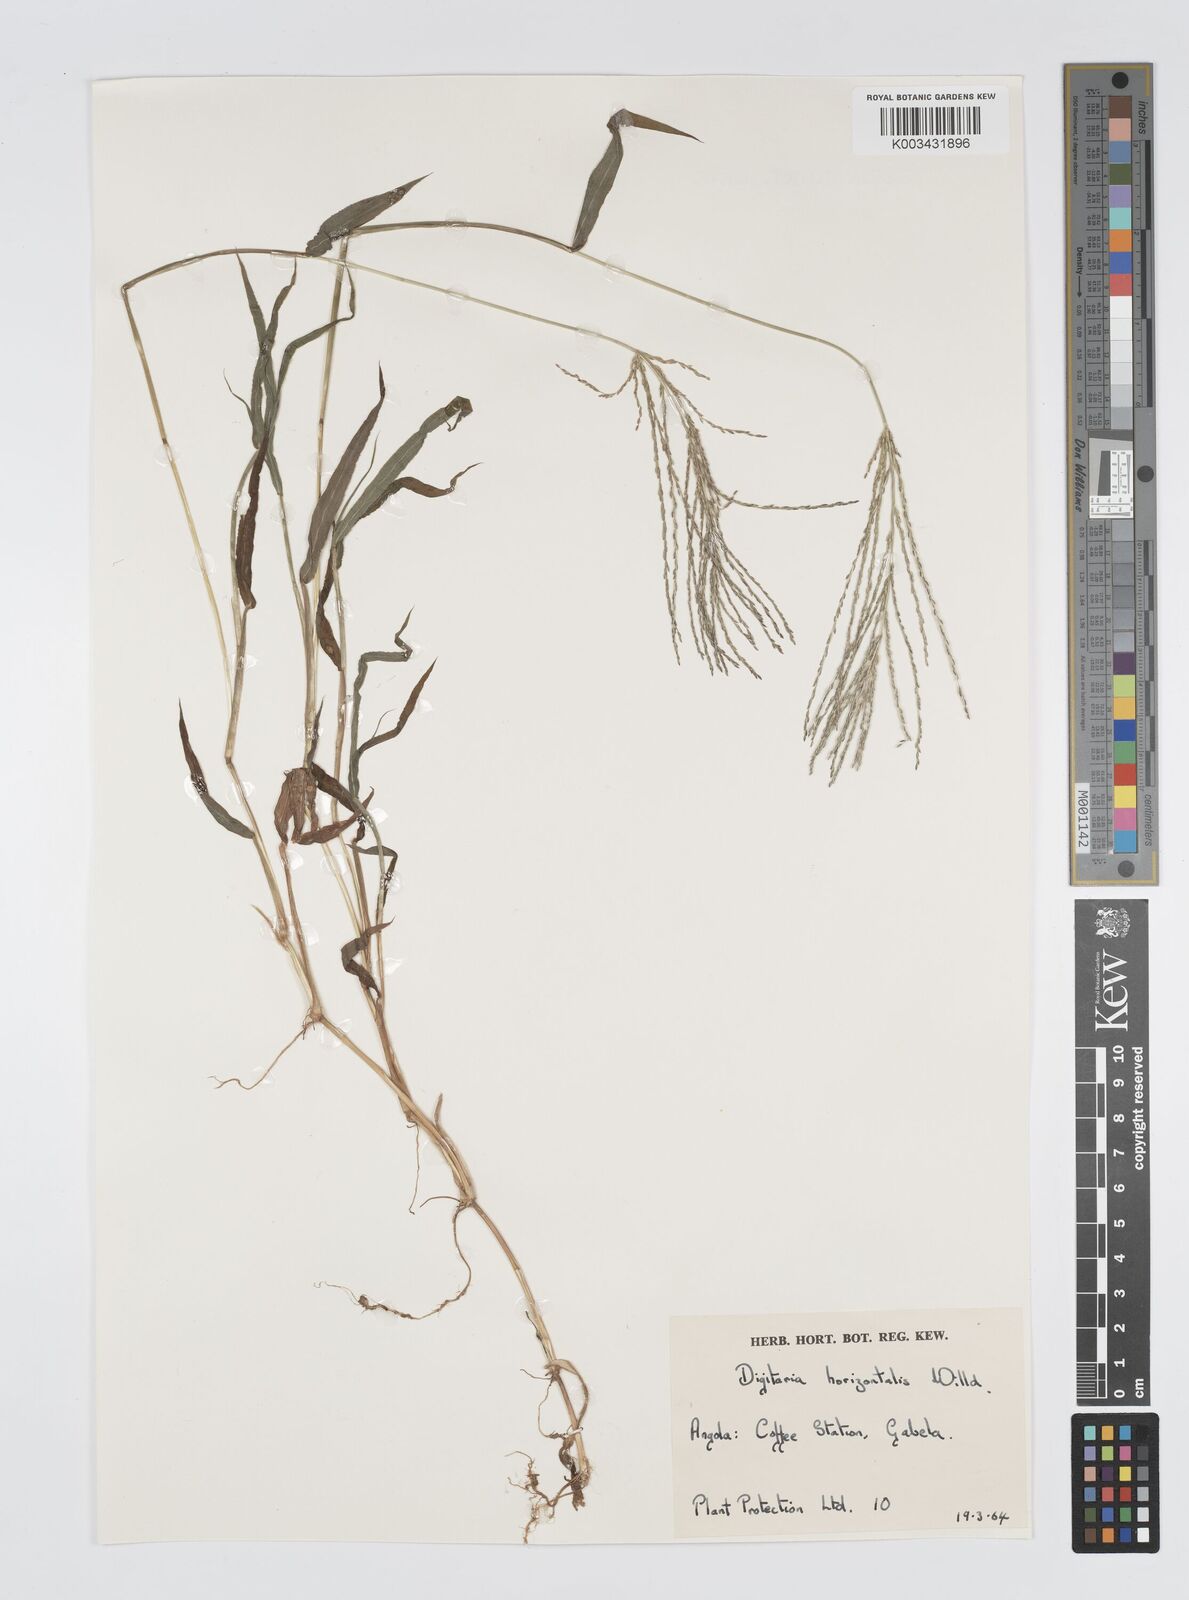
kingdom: Plantae
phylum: Tracheophyta
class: Liliopsida
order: Poales
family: Poaceae
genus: Digitaria
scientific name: Digitaria velutina
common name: Long-plume finger grass
